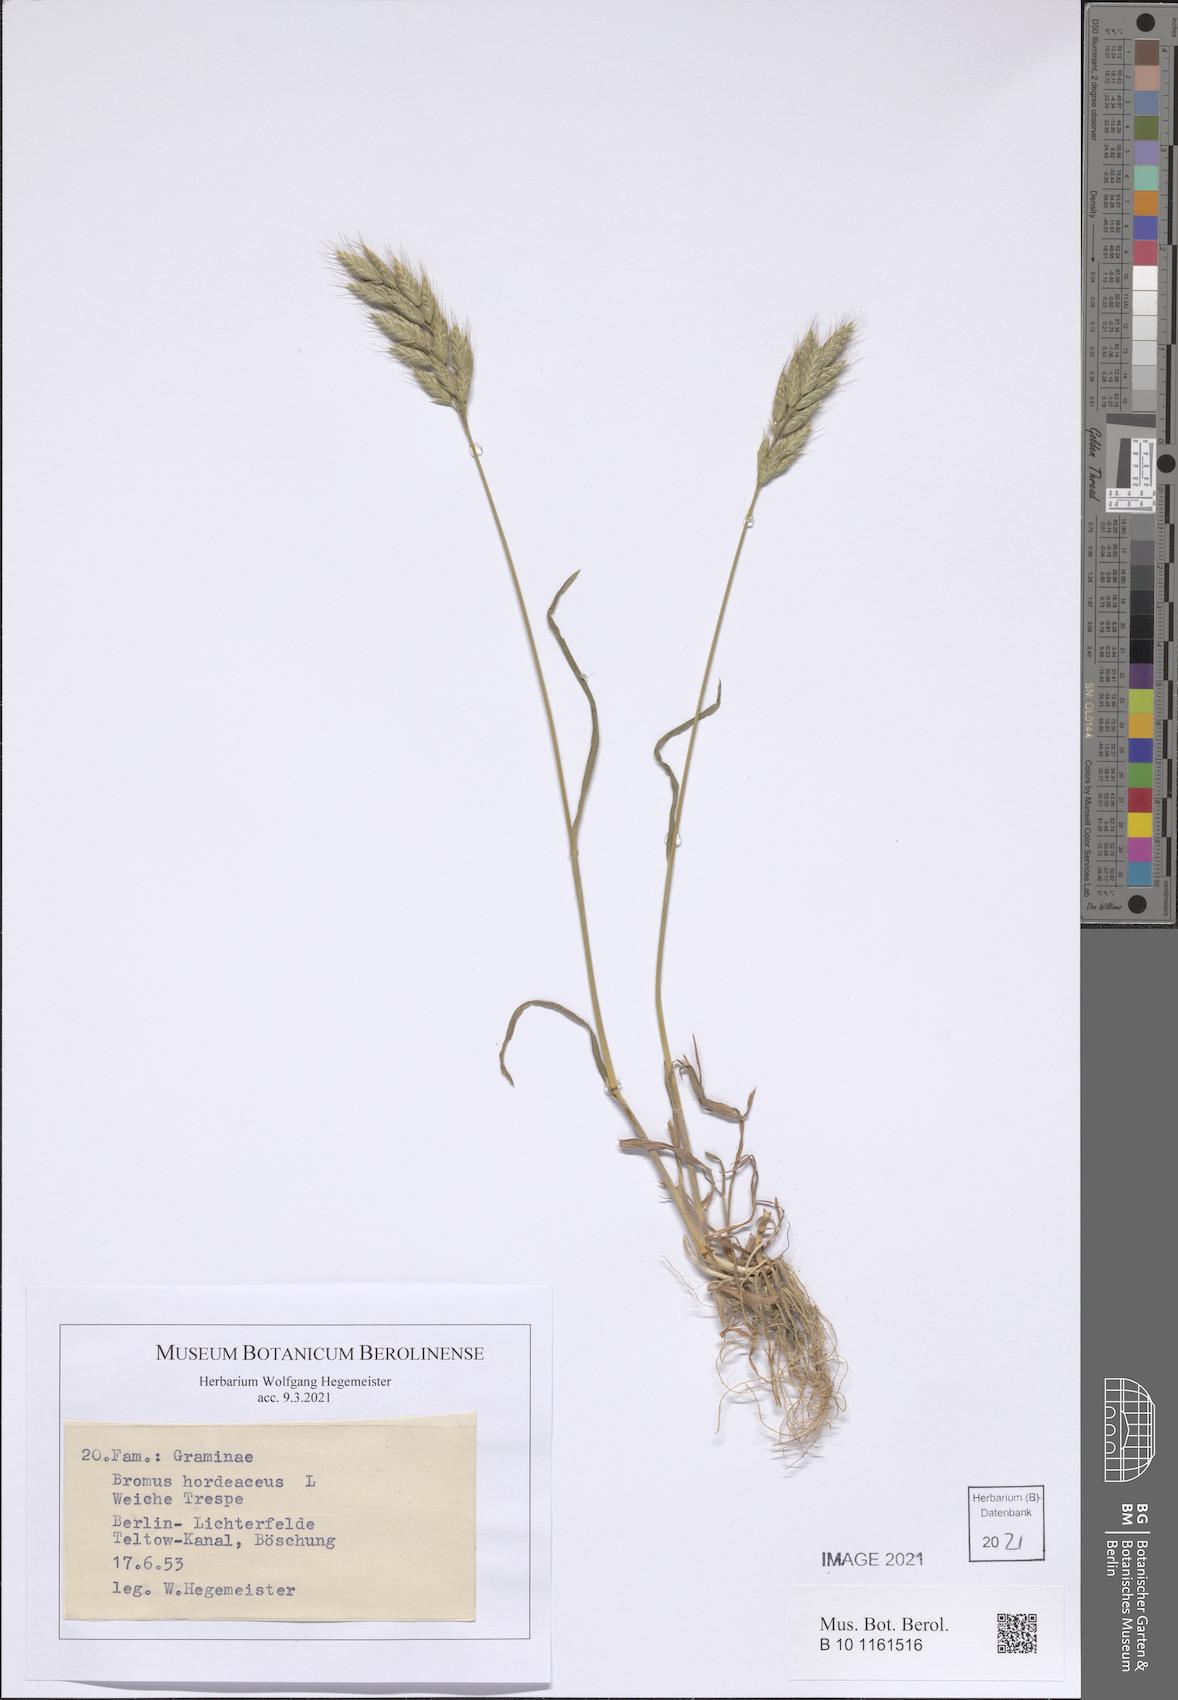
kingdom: Plantae
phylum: Tracheophyta
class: Liliopsida
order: Poales
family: Poaceae
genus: Bromus
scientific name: Bromus hordeaceus
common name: Soft brome
